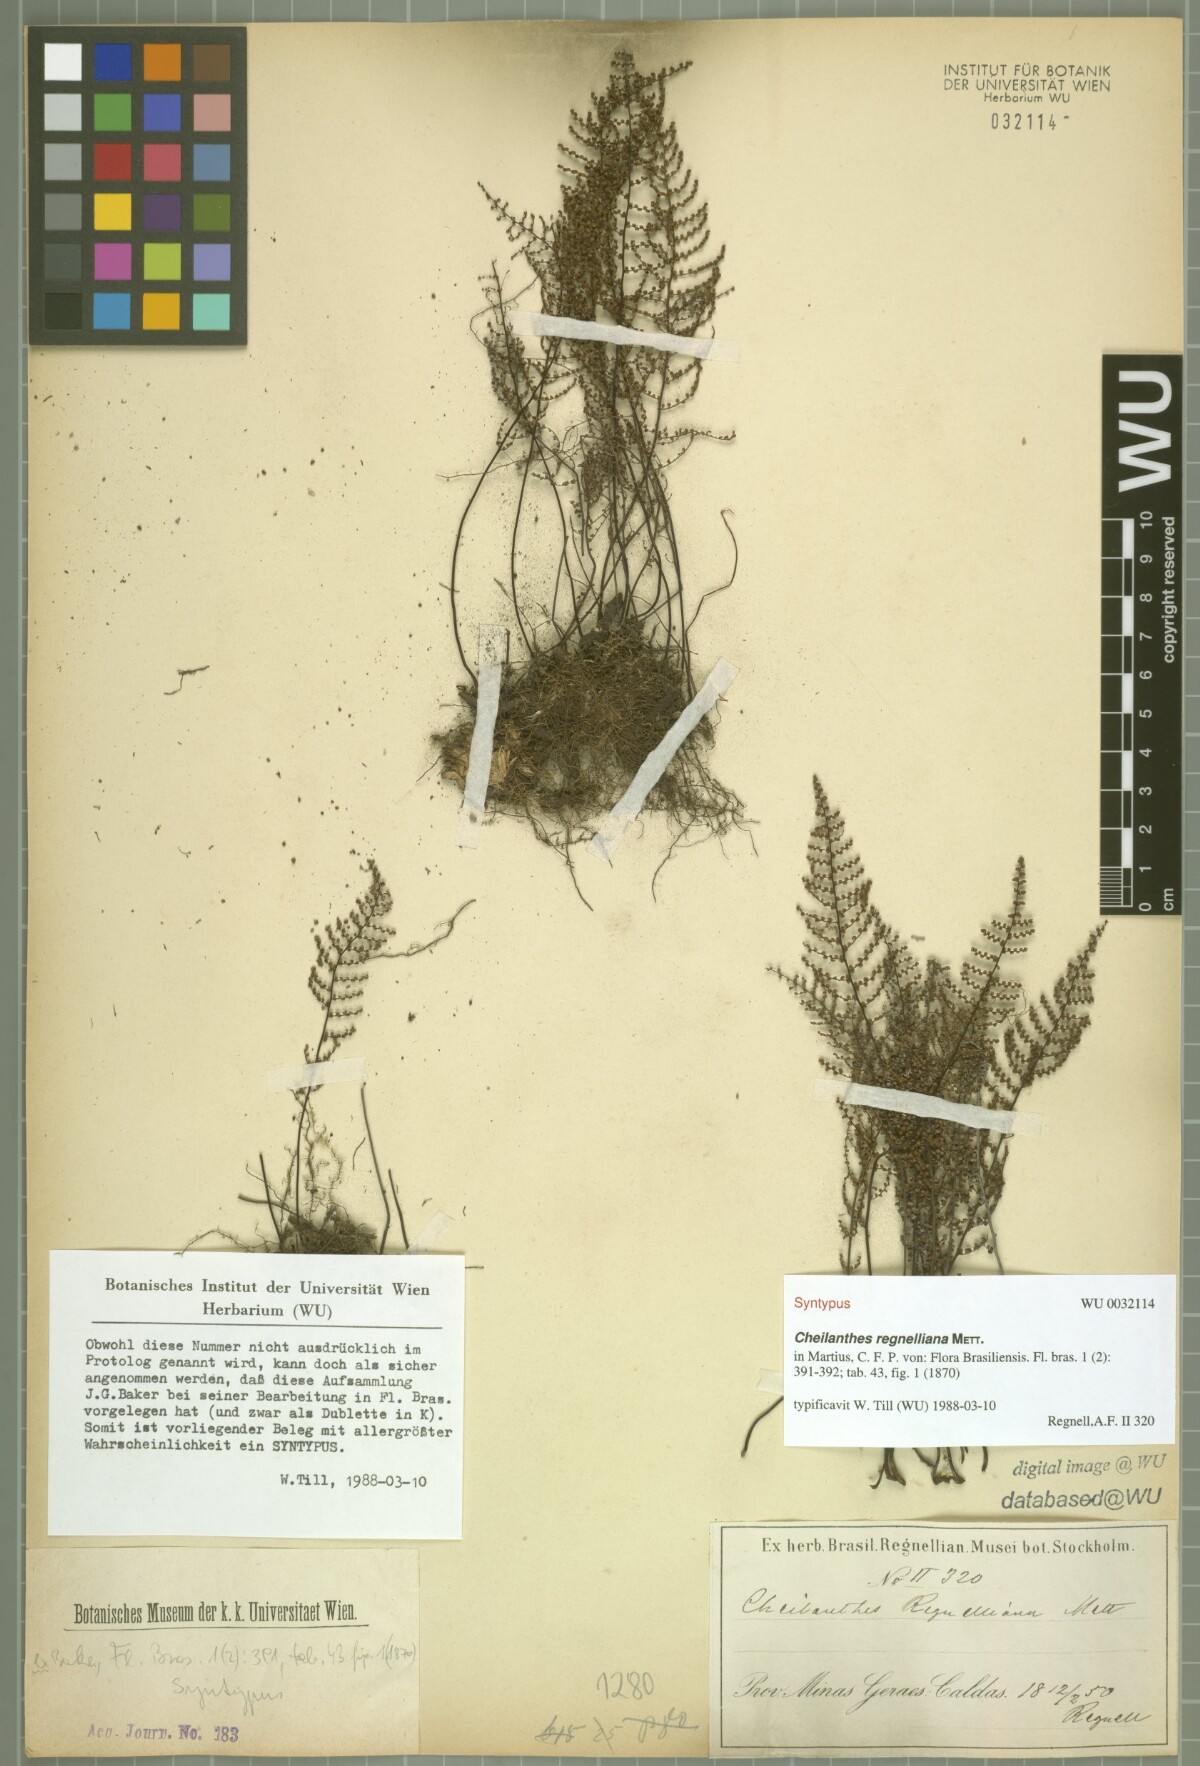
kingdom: Plantae
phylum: Tracheophyta
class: Polypodiopsida
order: Polypodiales
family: Pteridaceae
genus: Pellaea
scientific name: Pellaea regnelliana
